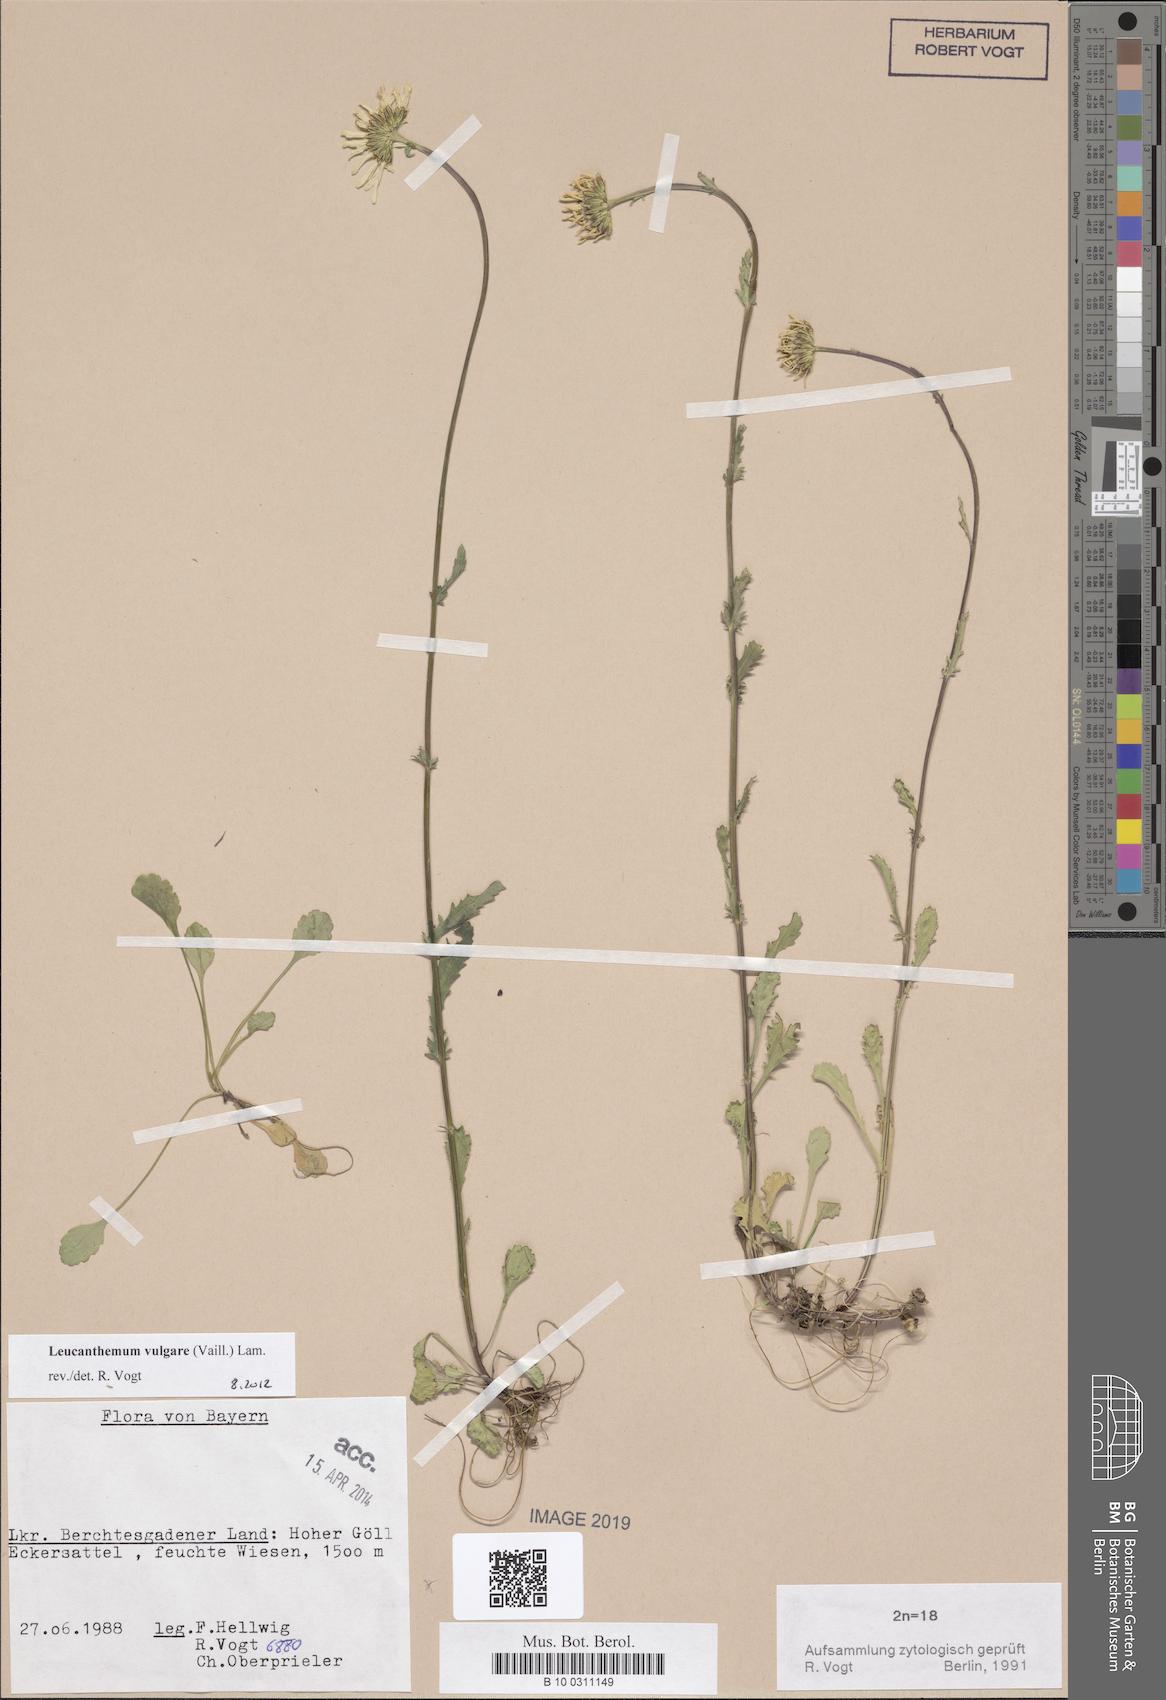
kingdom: Plantae
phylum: Tracheophyta
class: Magnoliopsida
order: Asterales
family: Asteraceae
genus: Leucanthemum
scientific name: Leucanthemum vulgare
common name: Oxeye daisy
